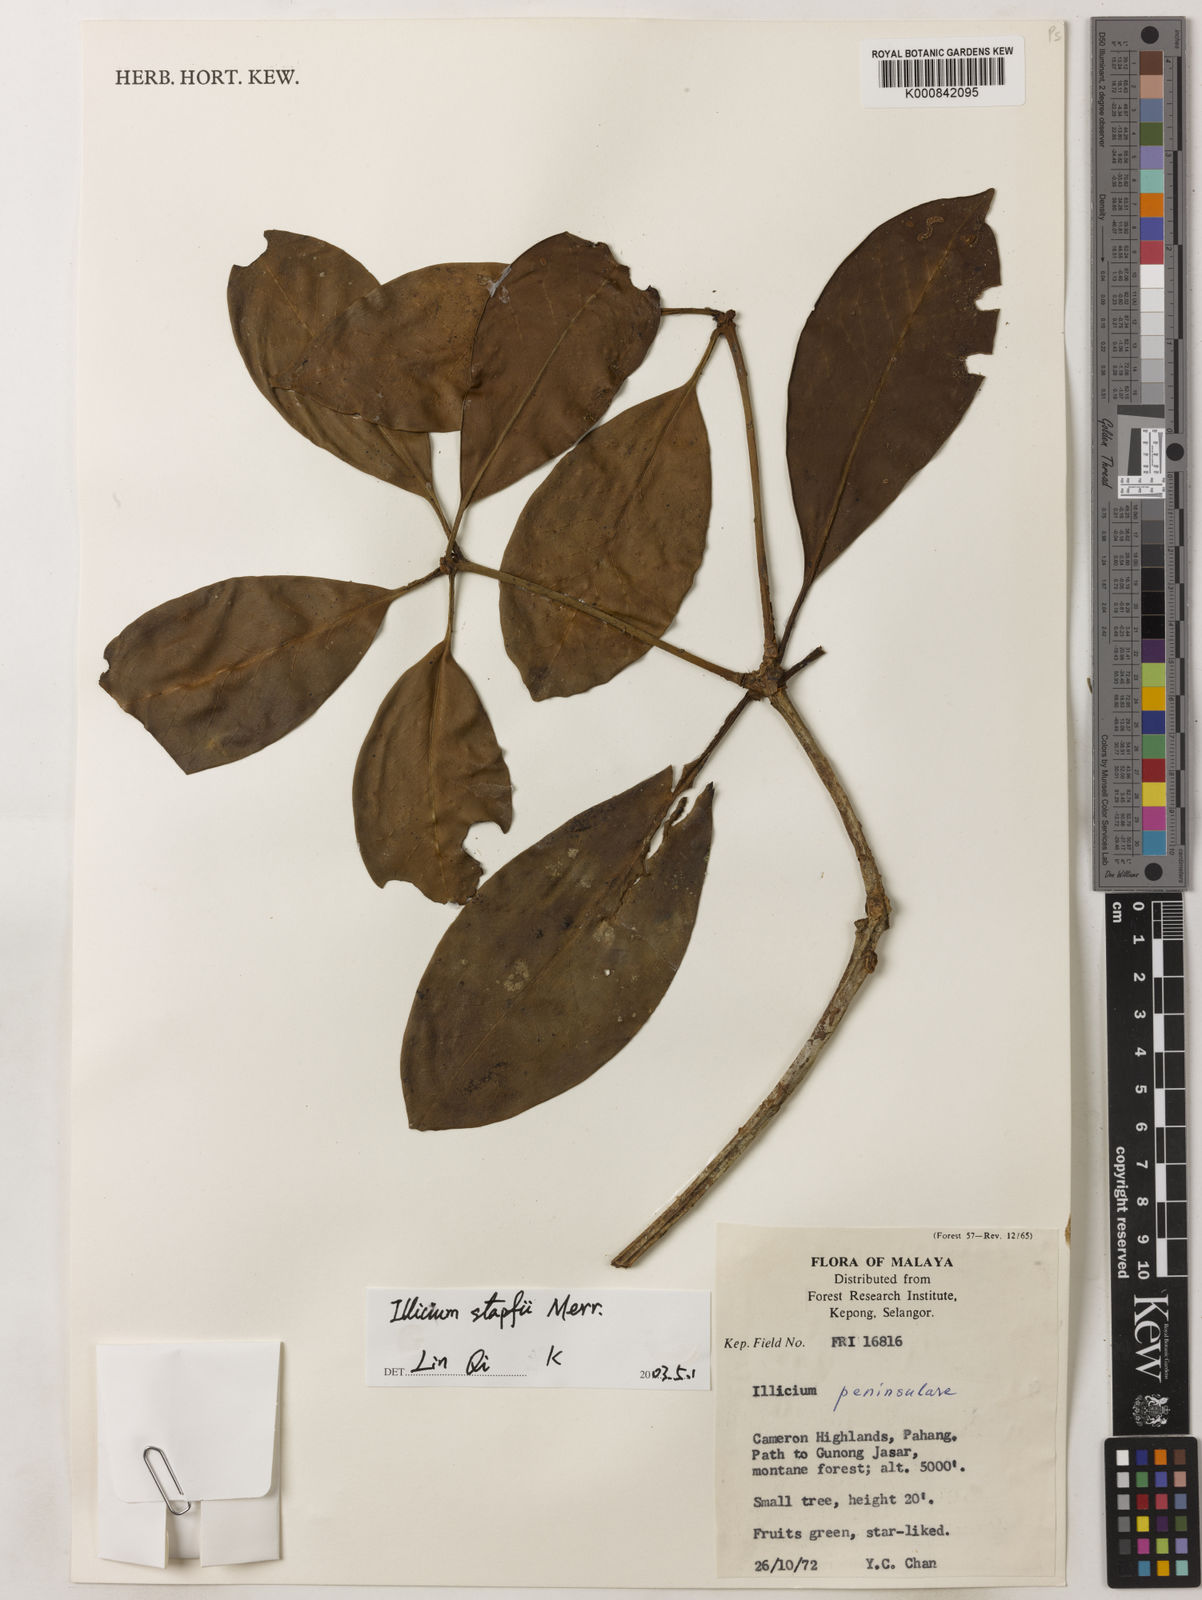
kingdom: Plantae
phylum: Tracheophyta
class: Magnoliopsida
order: Austrobaileyales
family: Schisandraceae
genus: Illicium
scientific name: Illicium stapfii
